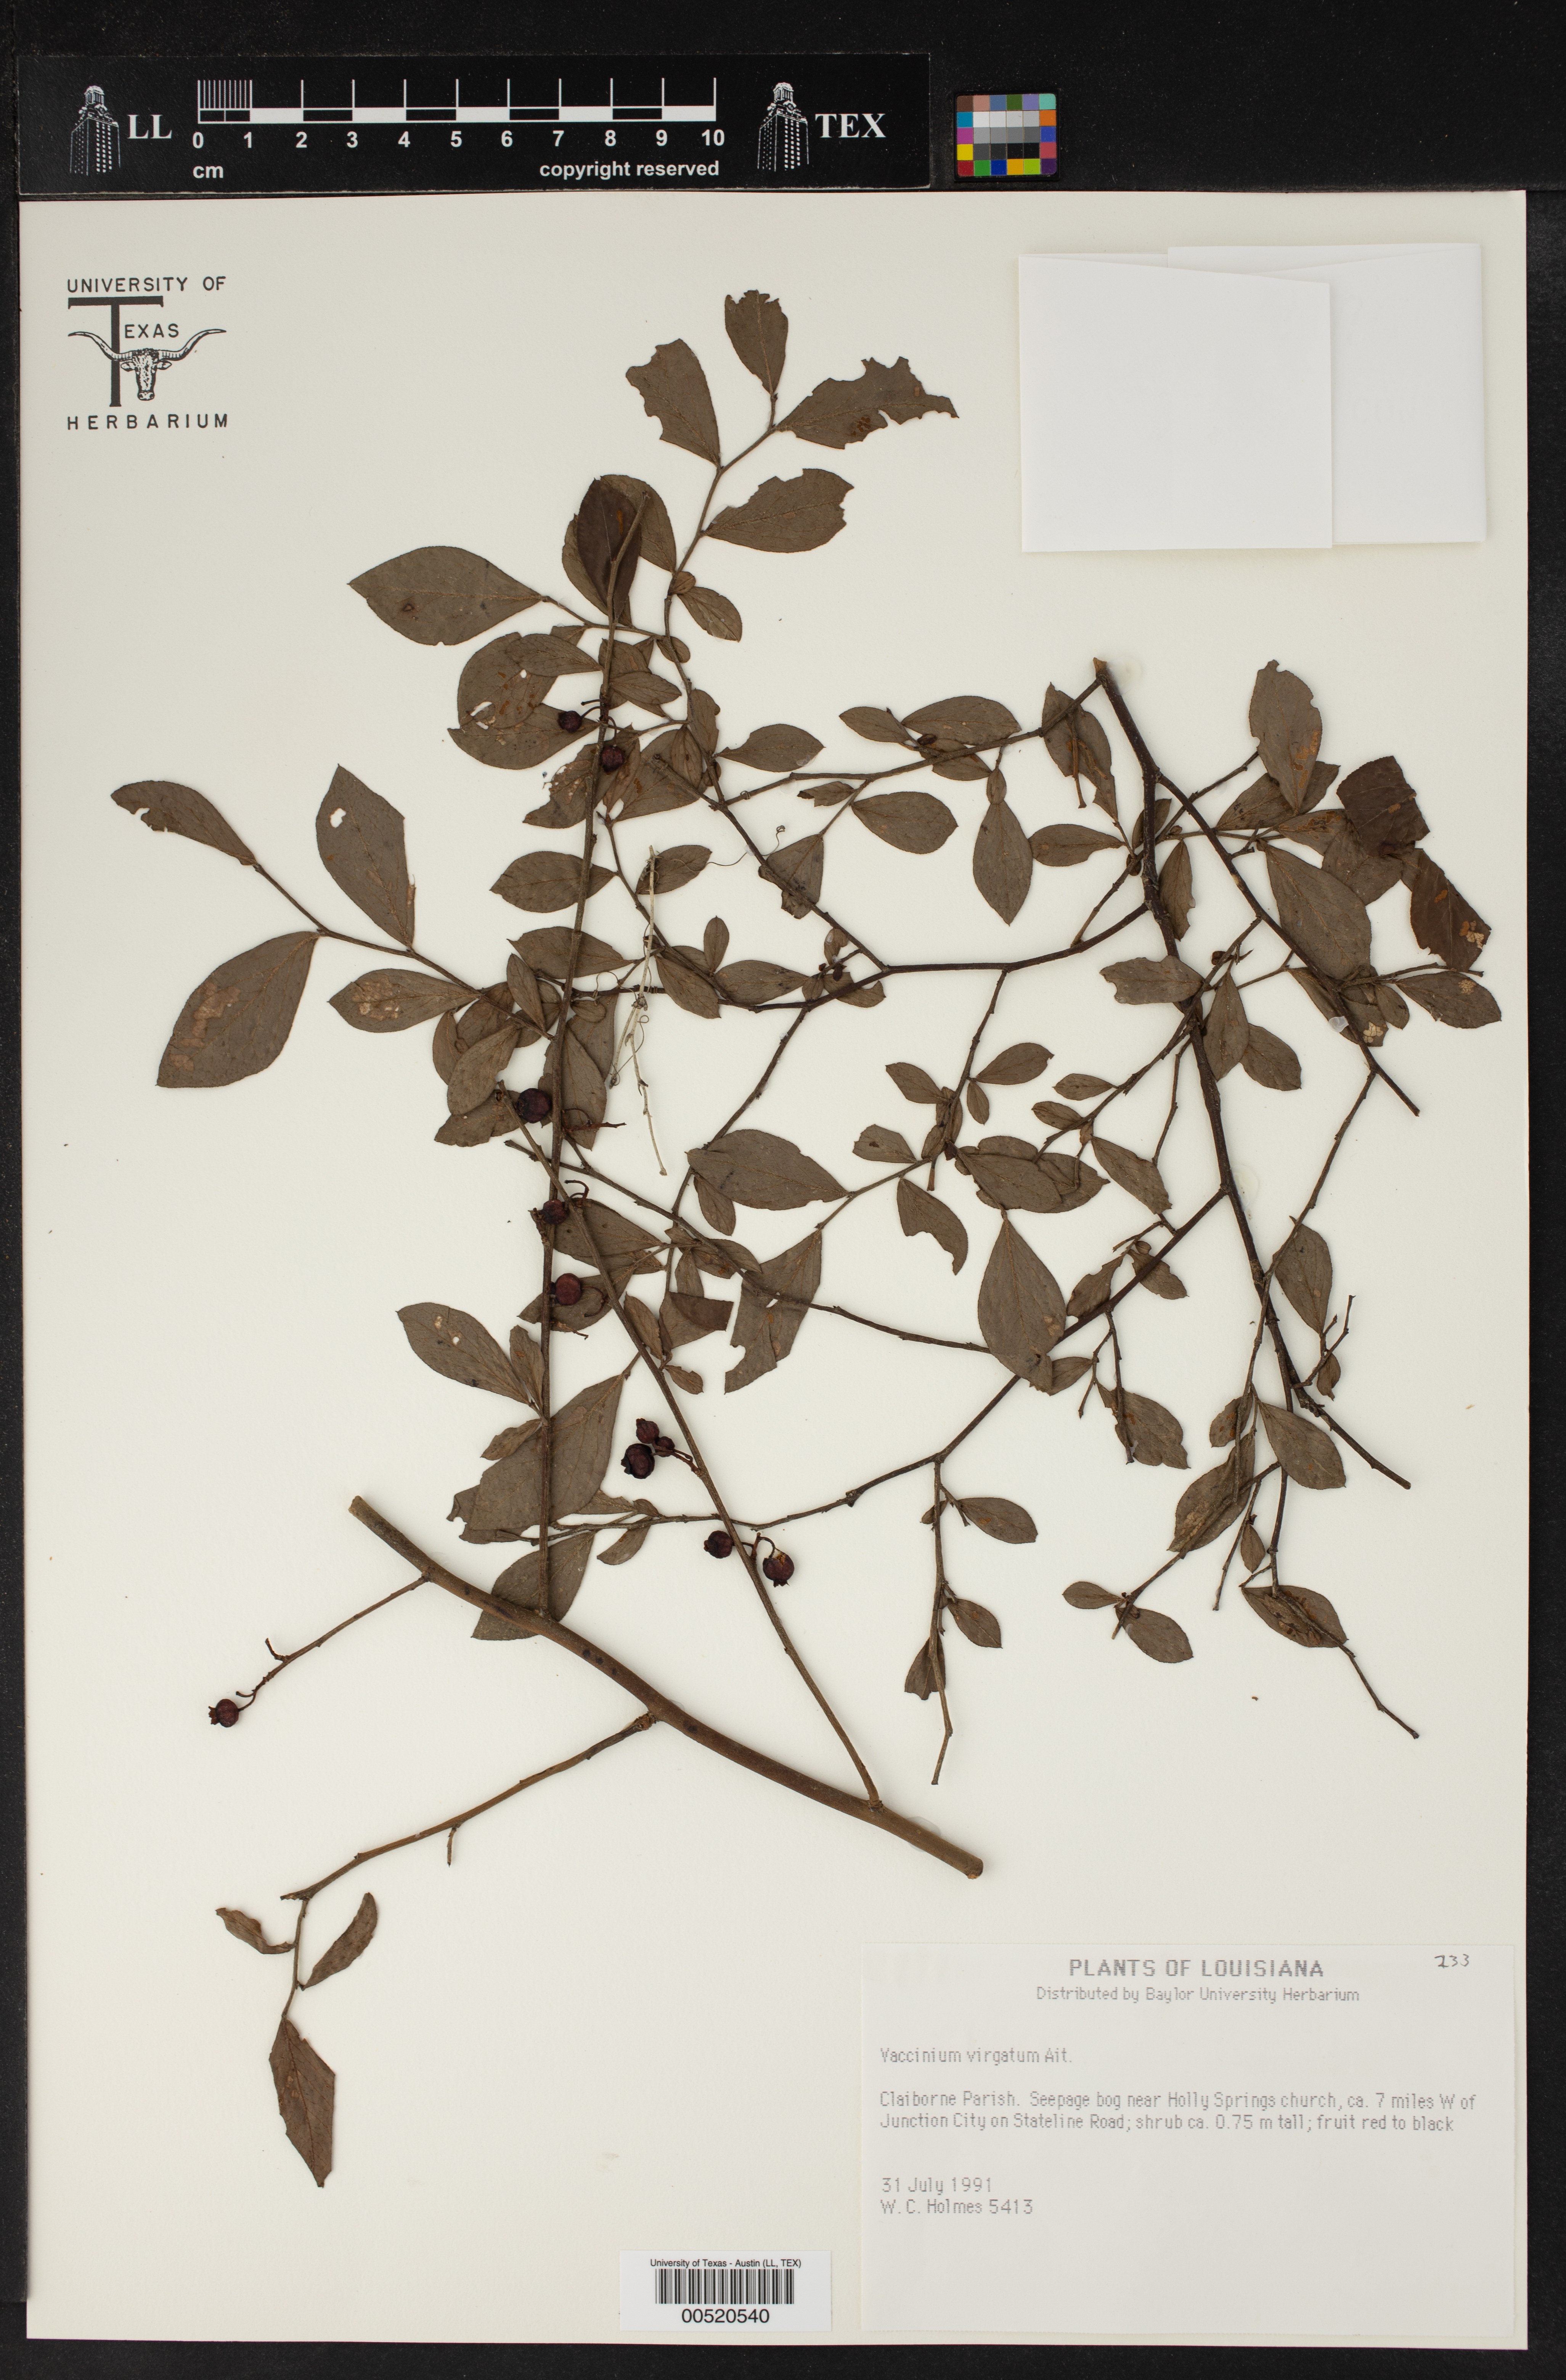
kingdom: Plantae
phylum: Tracheophyta
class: Magnoliopsida
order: Ericales
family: Ericaceae
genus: Vaccinium
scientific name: Vaccinium
